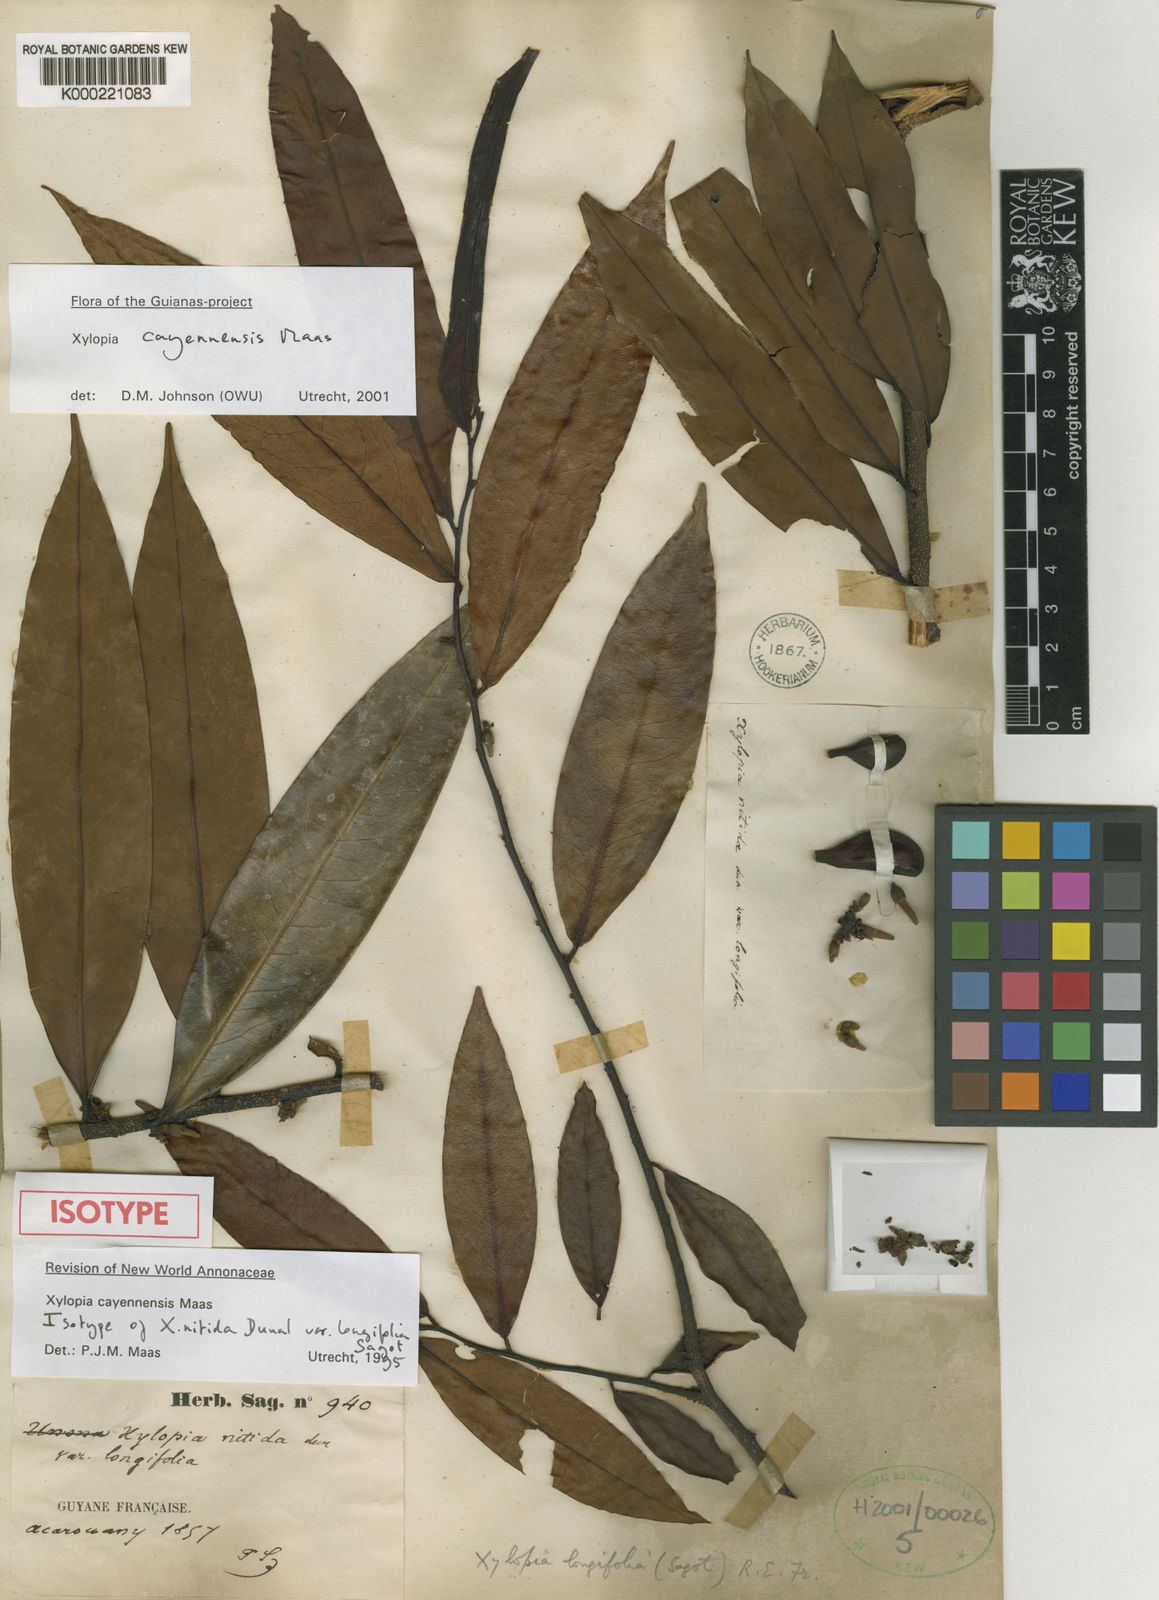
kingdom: Plantae
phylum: Tracheophyta
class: Magnoliopsida
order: Magnoliales
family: Annonaceae
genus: Xylopia
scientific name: Xylopia cayennensis
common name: Black maho
